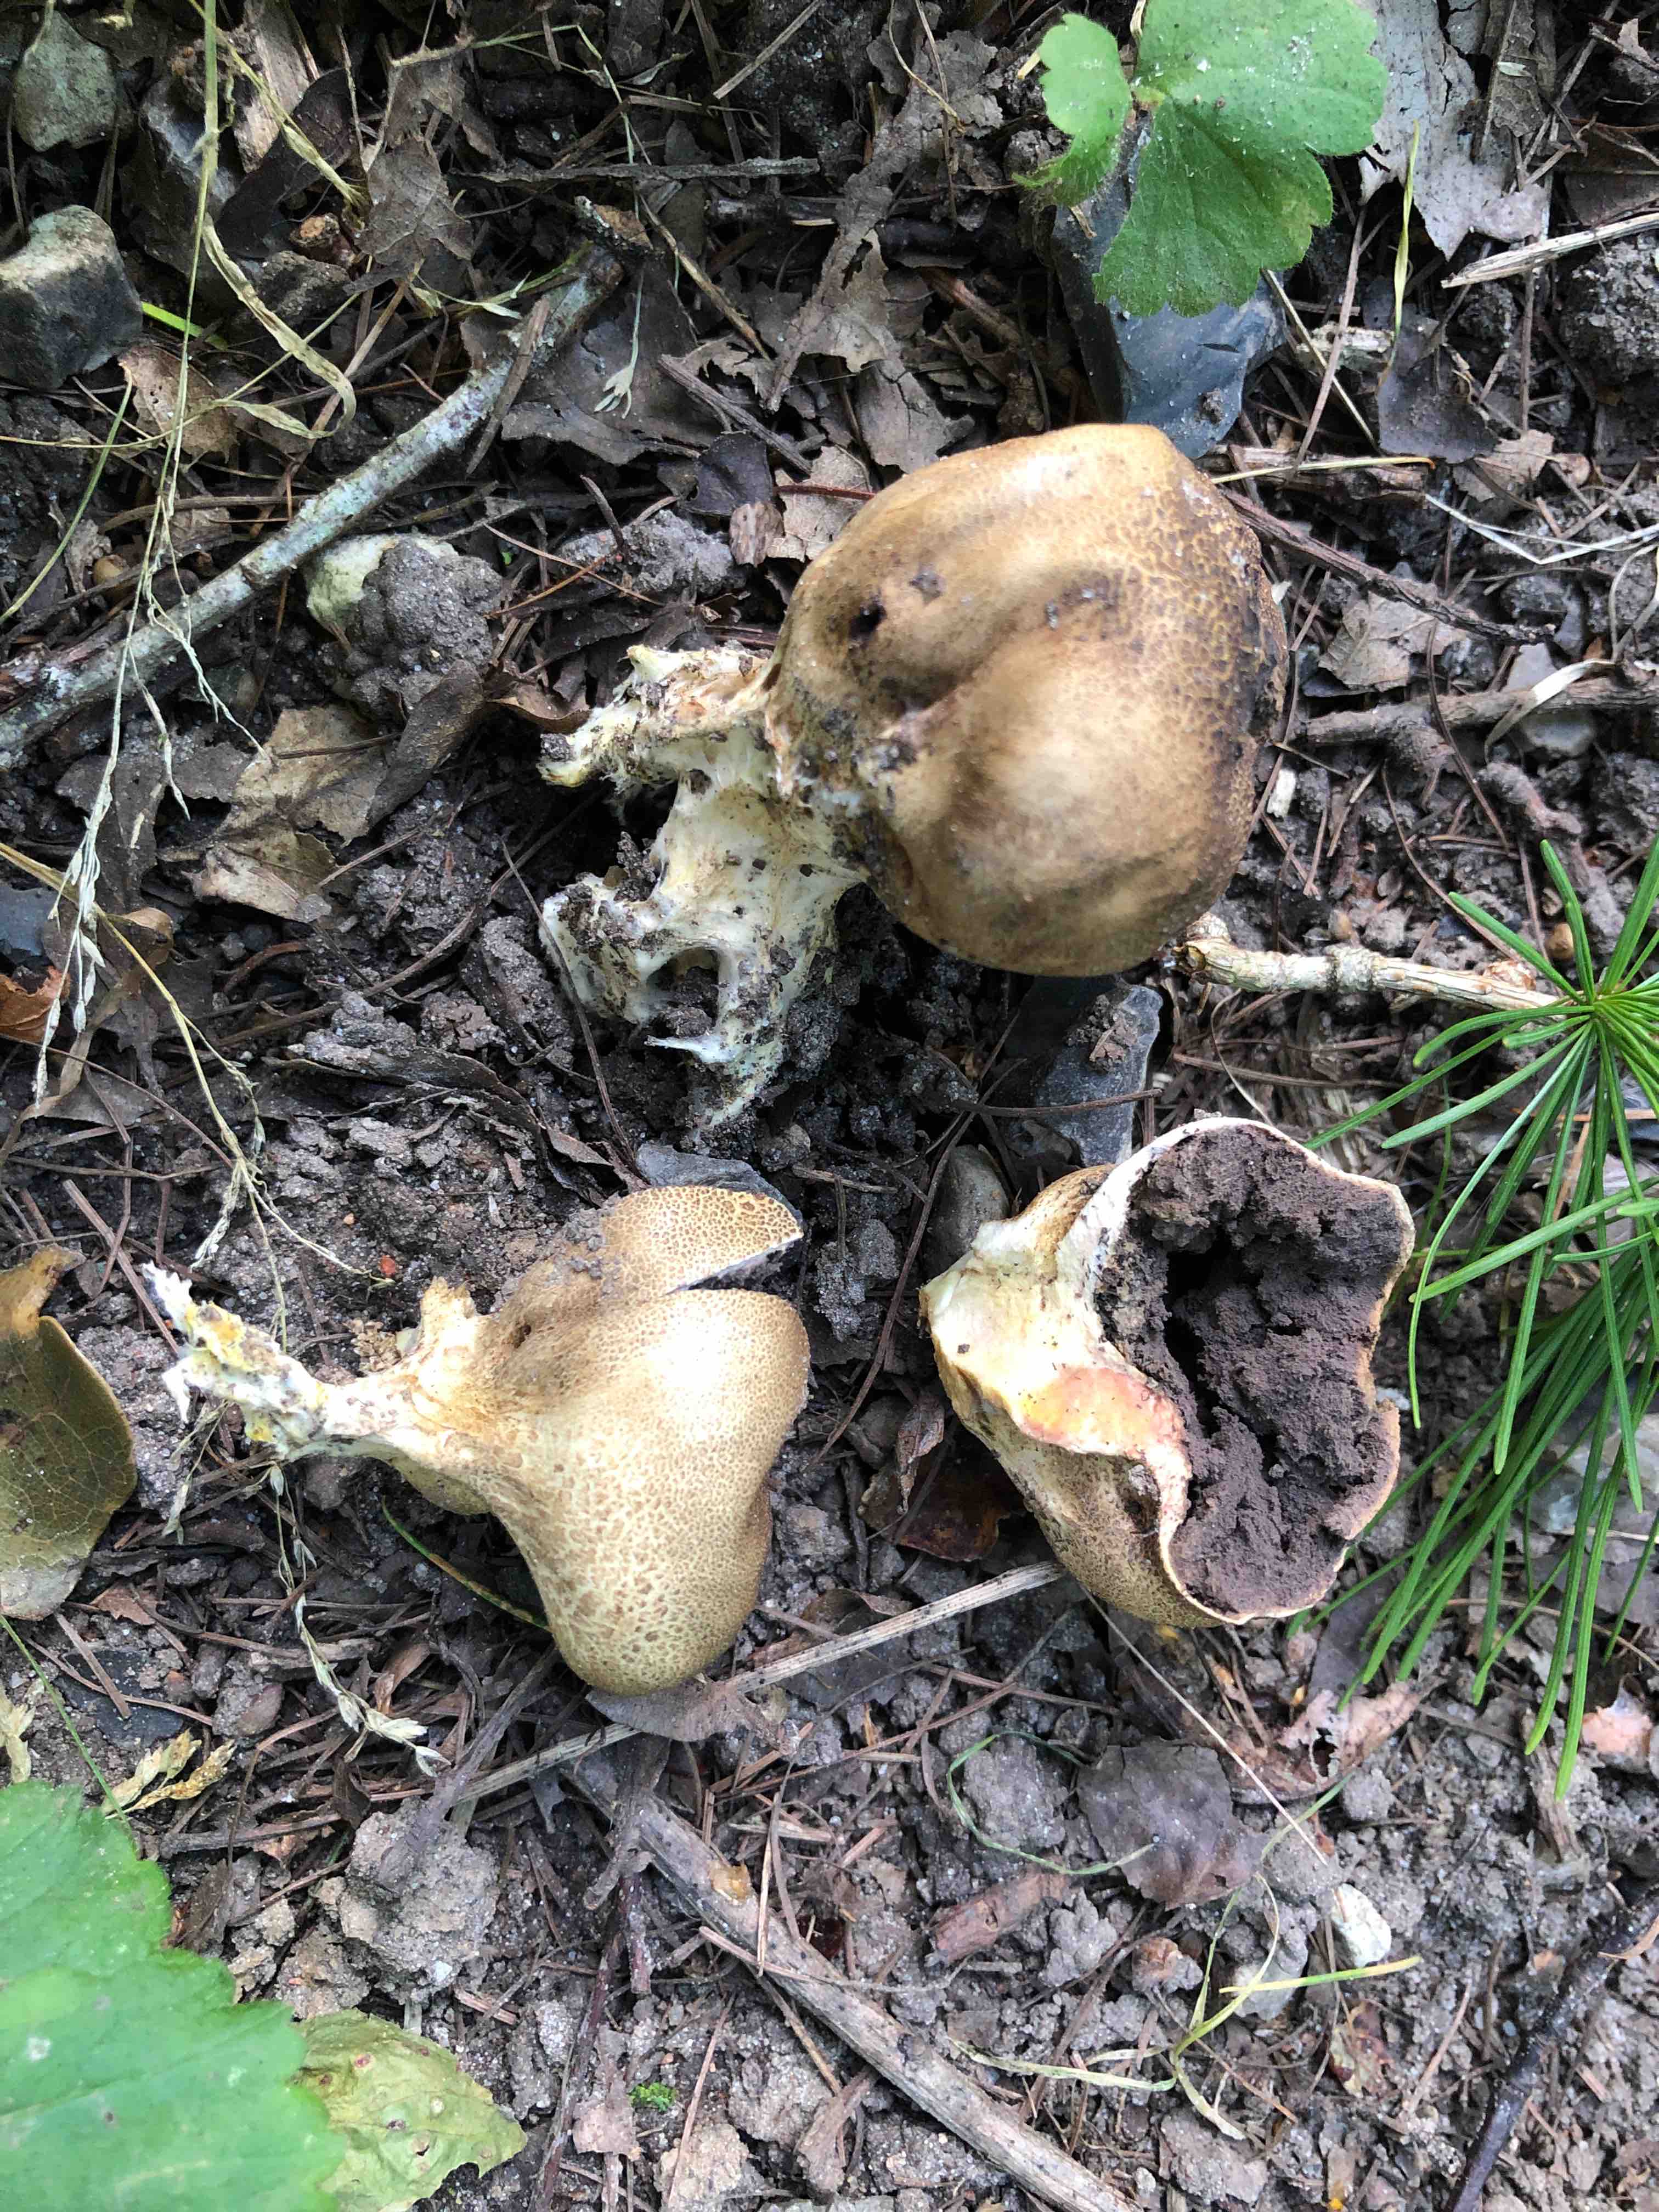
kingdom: Fungi
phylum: Basidiomycota
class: Agaricomycetes
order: Boletales
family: Sclerodermataceae
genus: Scleroderma
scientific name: Scleroderma verrucosum
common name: stilket bruskbold
